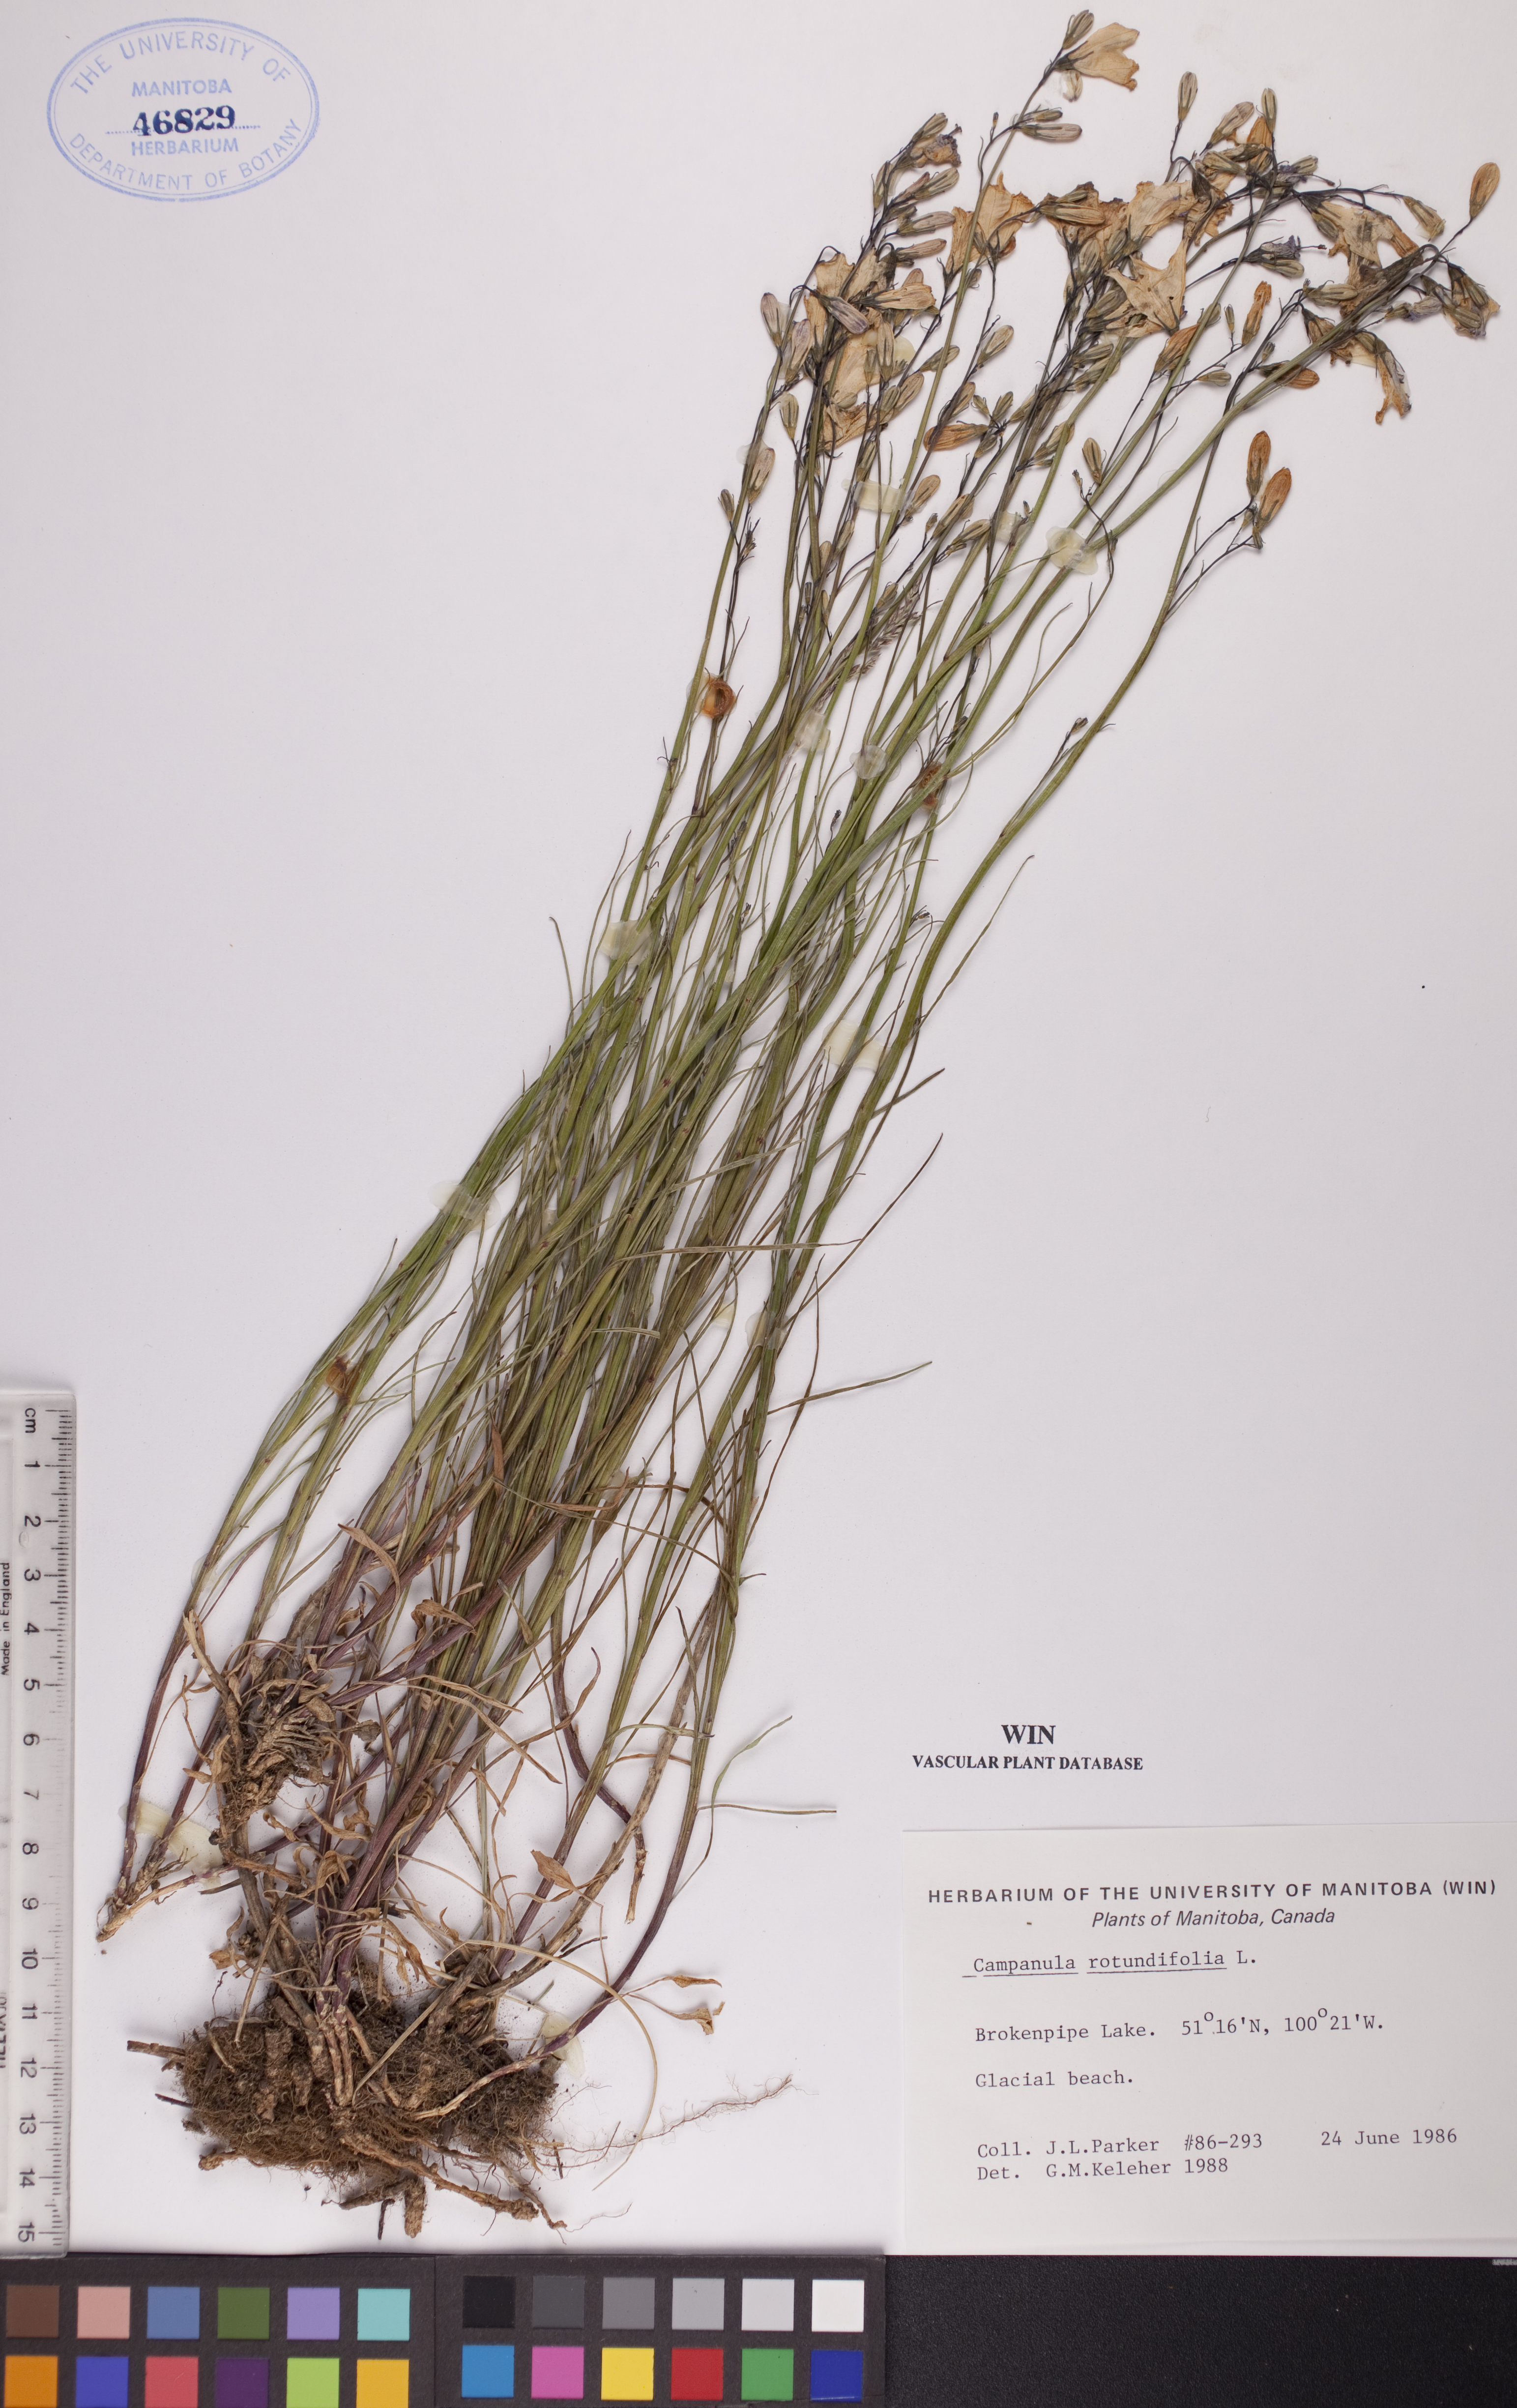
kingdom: Plantae
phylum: Tracheophyta
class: Magnoliopsida
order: Asterales
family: Campanulaceae
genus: Campanula
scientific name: Campanula rotundifolia
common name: Harebell
